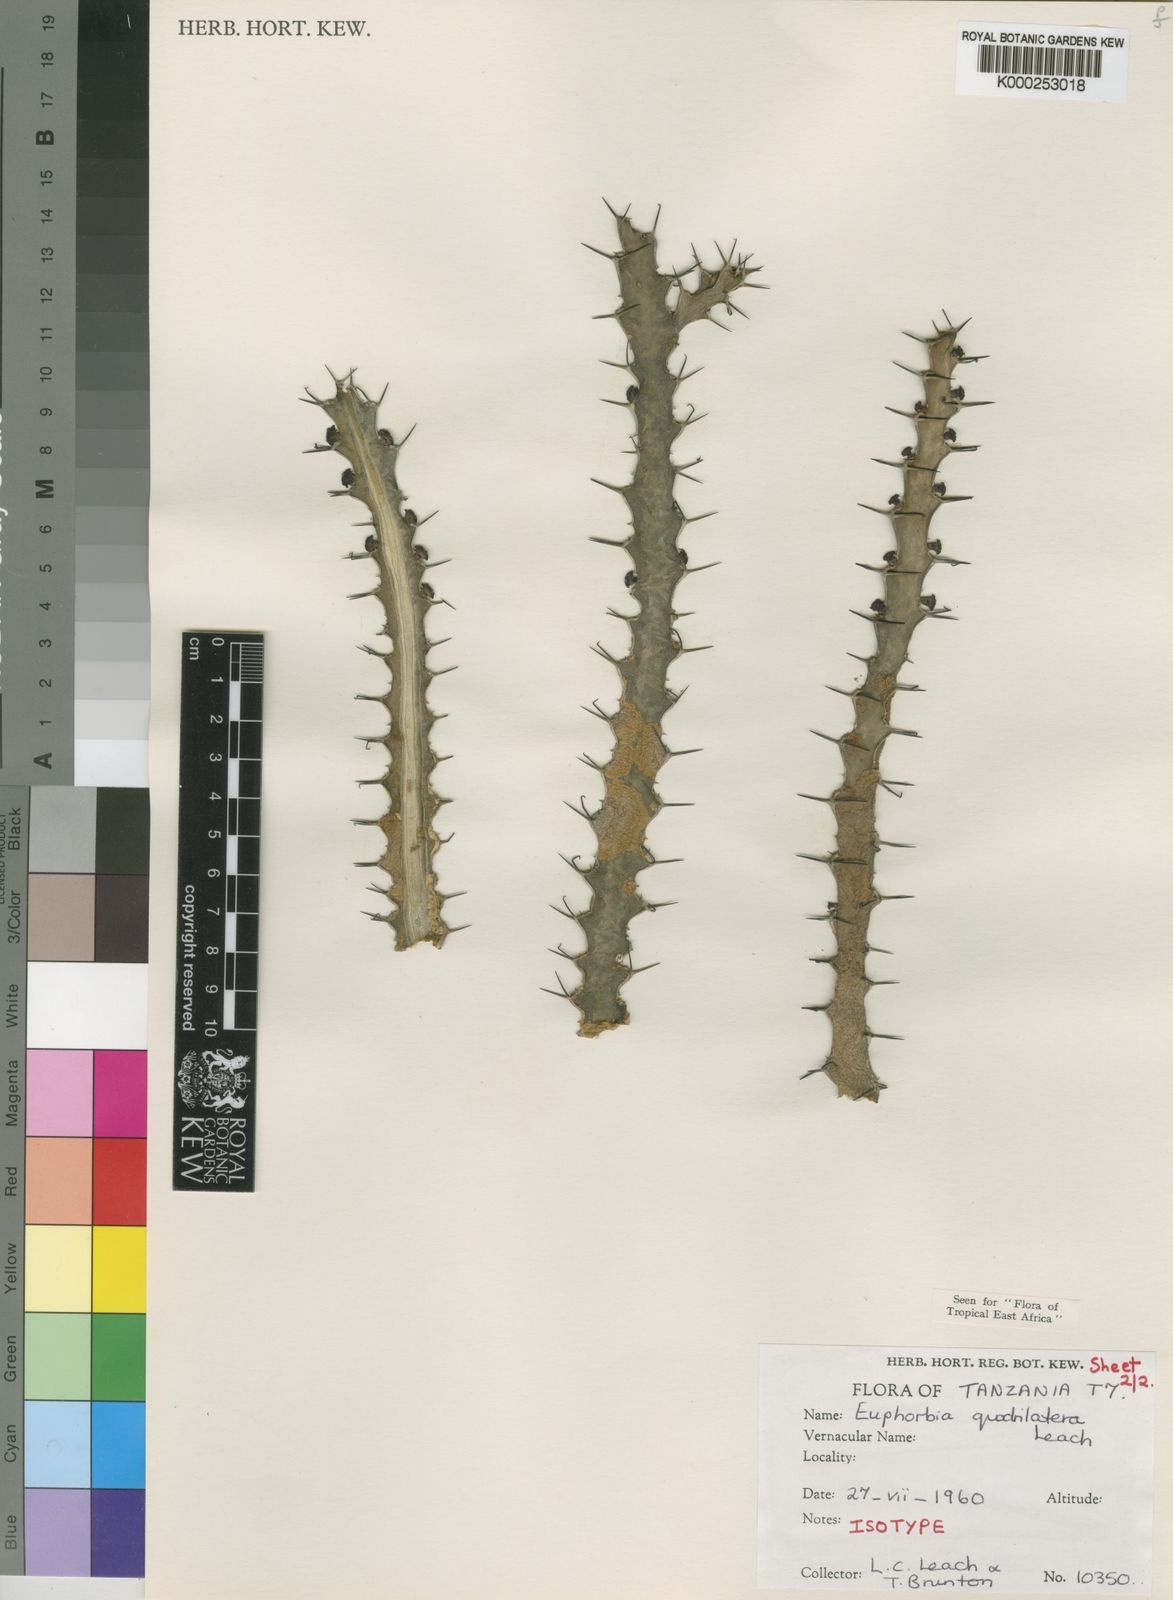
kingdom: Plantae
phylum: Tracheophyta
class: Magnoliopsida
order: Malpighiales
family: Euphorbiaceae
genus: Euphorbia
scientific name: Euphorbia quadrilatera
